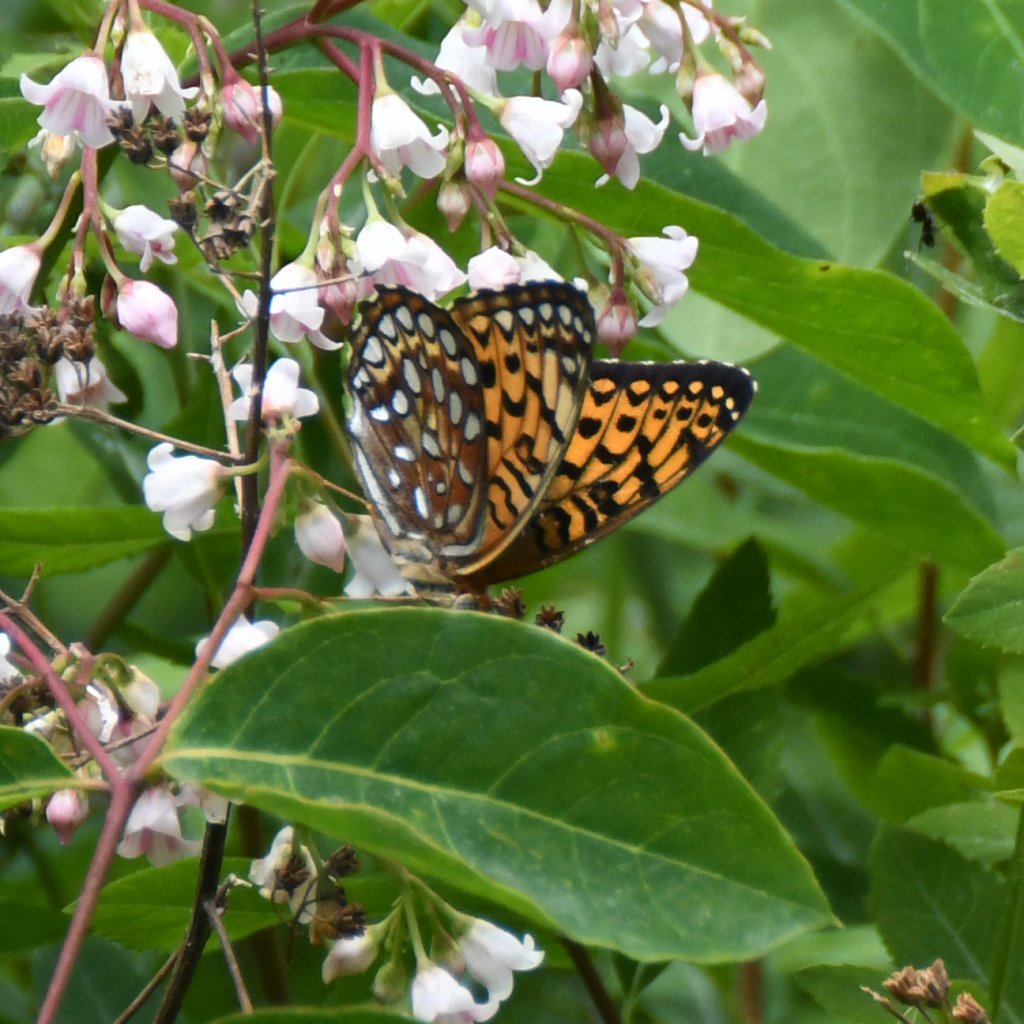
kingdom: Animalia
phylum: Arthropoda
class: Insecta
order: Lepidoptera
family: Nymphalidae
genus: Speyeria
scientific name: Speyeria atlantis
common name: Atlantis Fritillary
